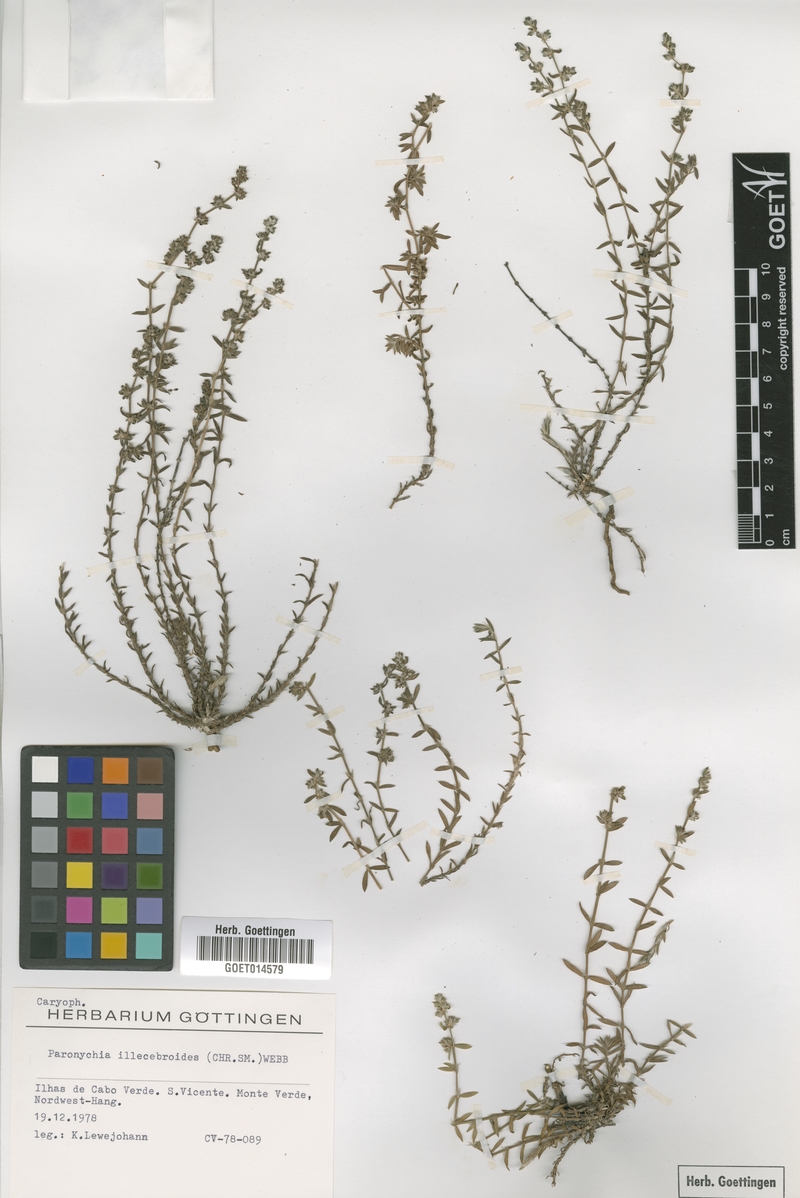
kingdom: Plantae
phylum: Tracheophyta
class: Magnoliopsida
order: Caryophyllales
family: Caryophyllaceae
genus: Paronychia
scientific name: Paronychia illecebroides
